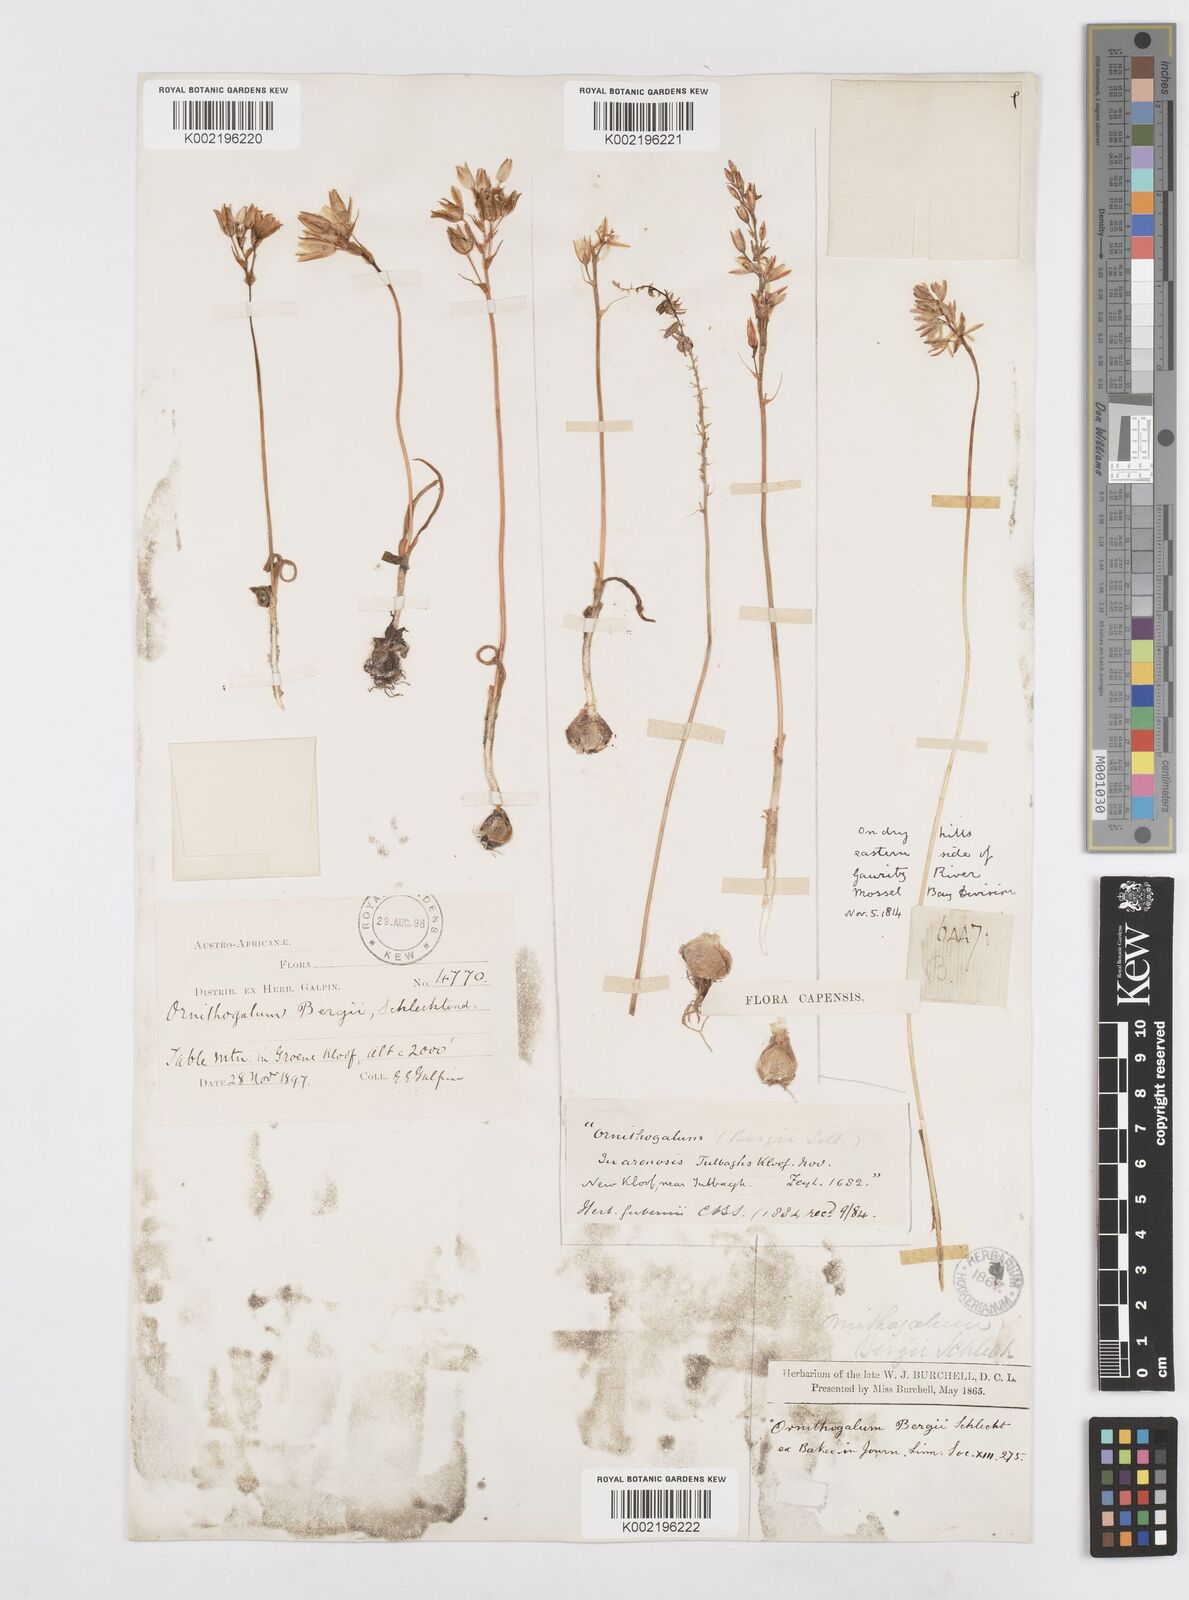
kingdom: Plantae
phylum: Tracheophyta
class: Liliopsida
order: Asparagales
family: Asparagaceae
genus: Ornithogalum
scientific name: Ornithogalum hispidum
